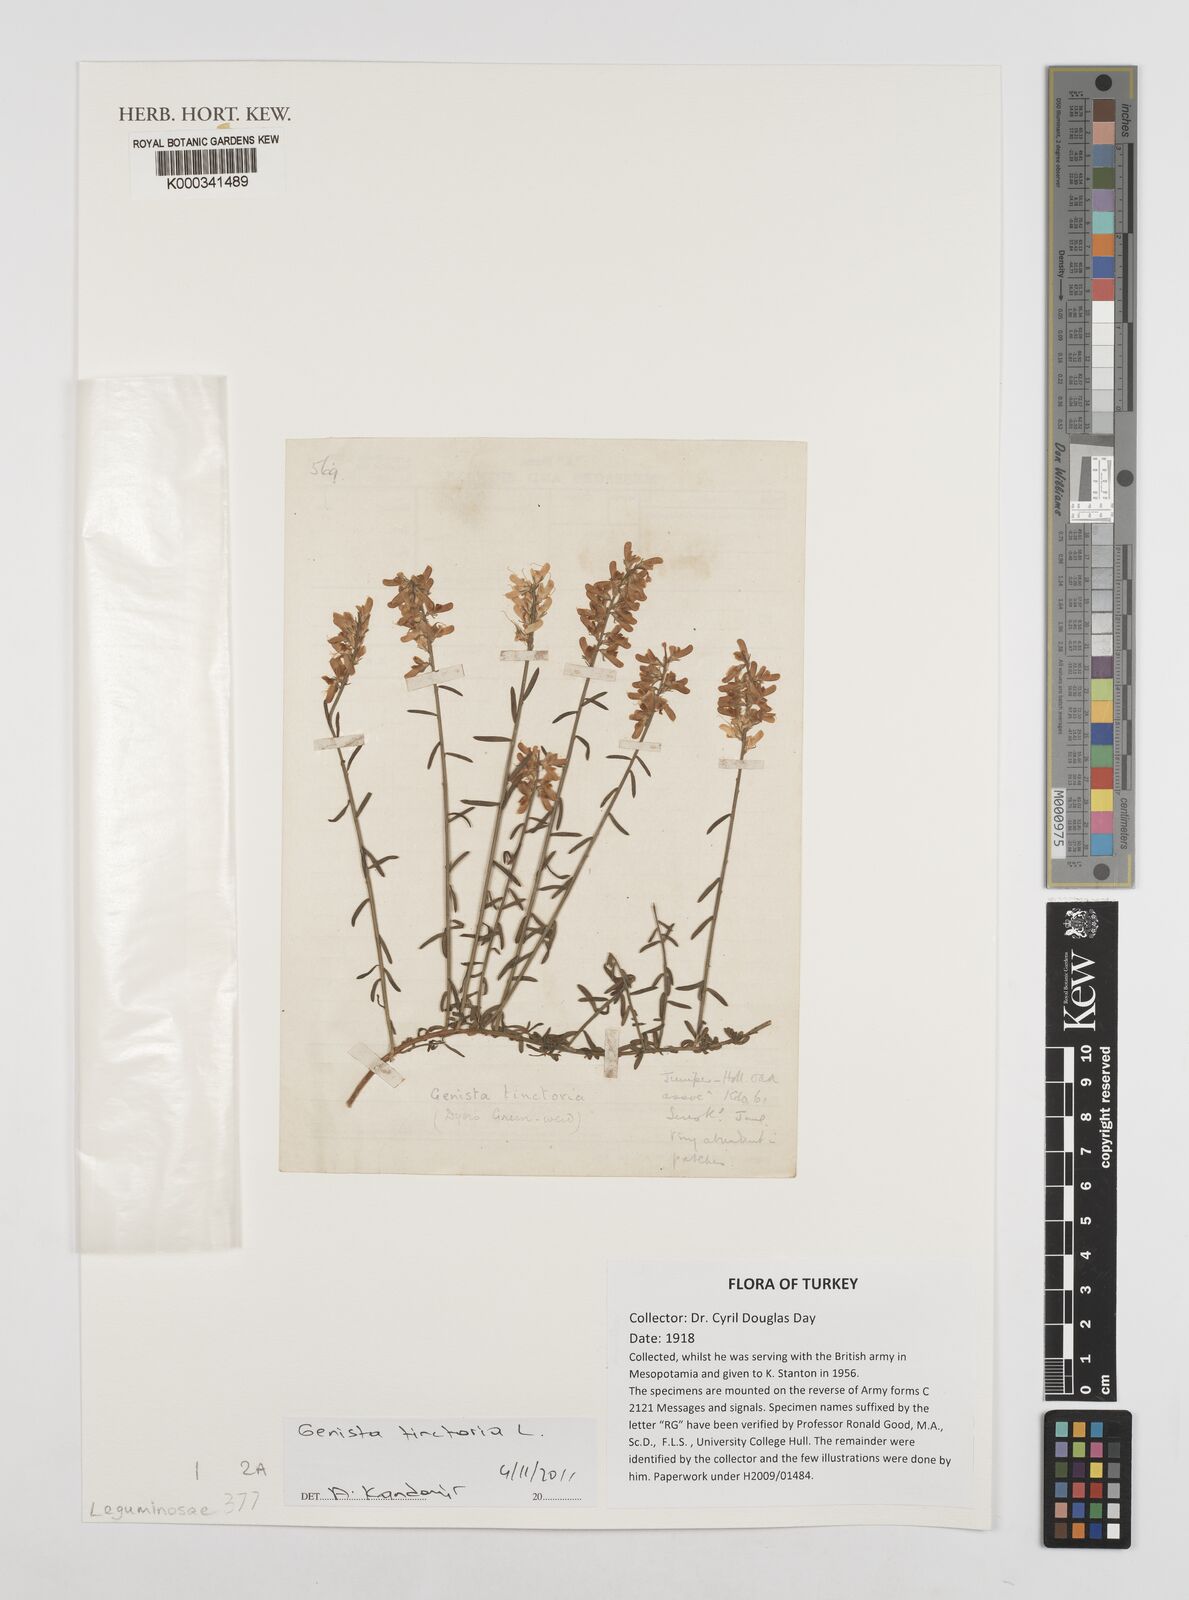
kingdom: Plantae
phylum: Tracheophyta
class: Magnoliopsida
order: Fabales
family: Fabaceae
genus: Genista
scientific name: Genista tinctoria
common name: Dyer's greenweed
